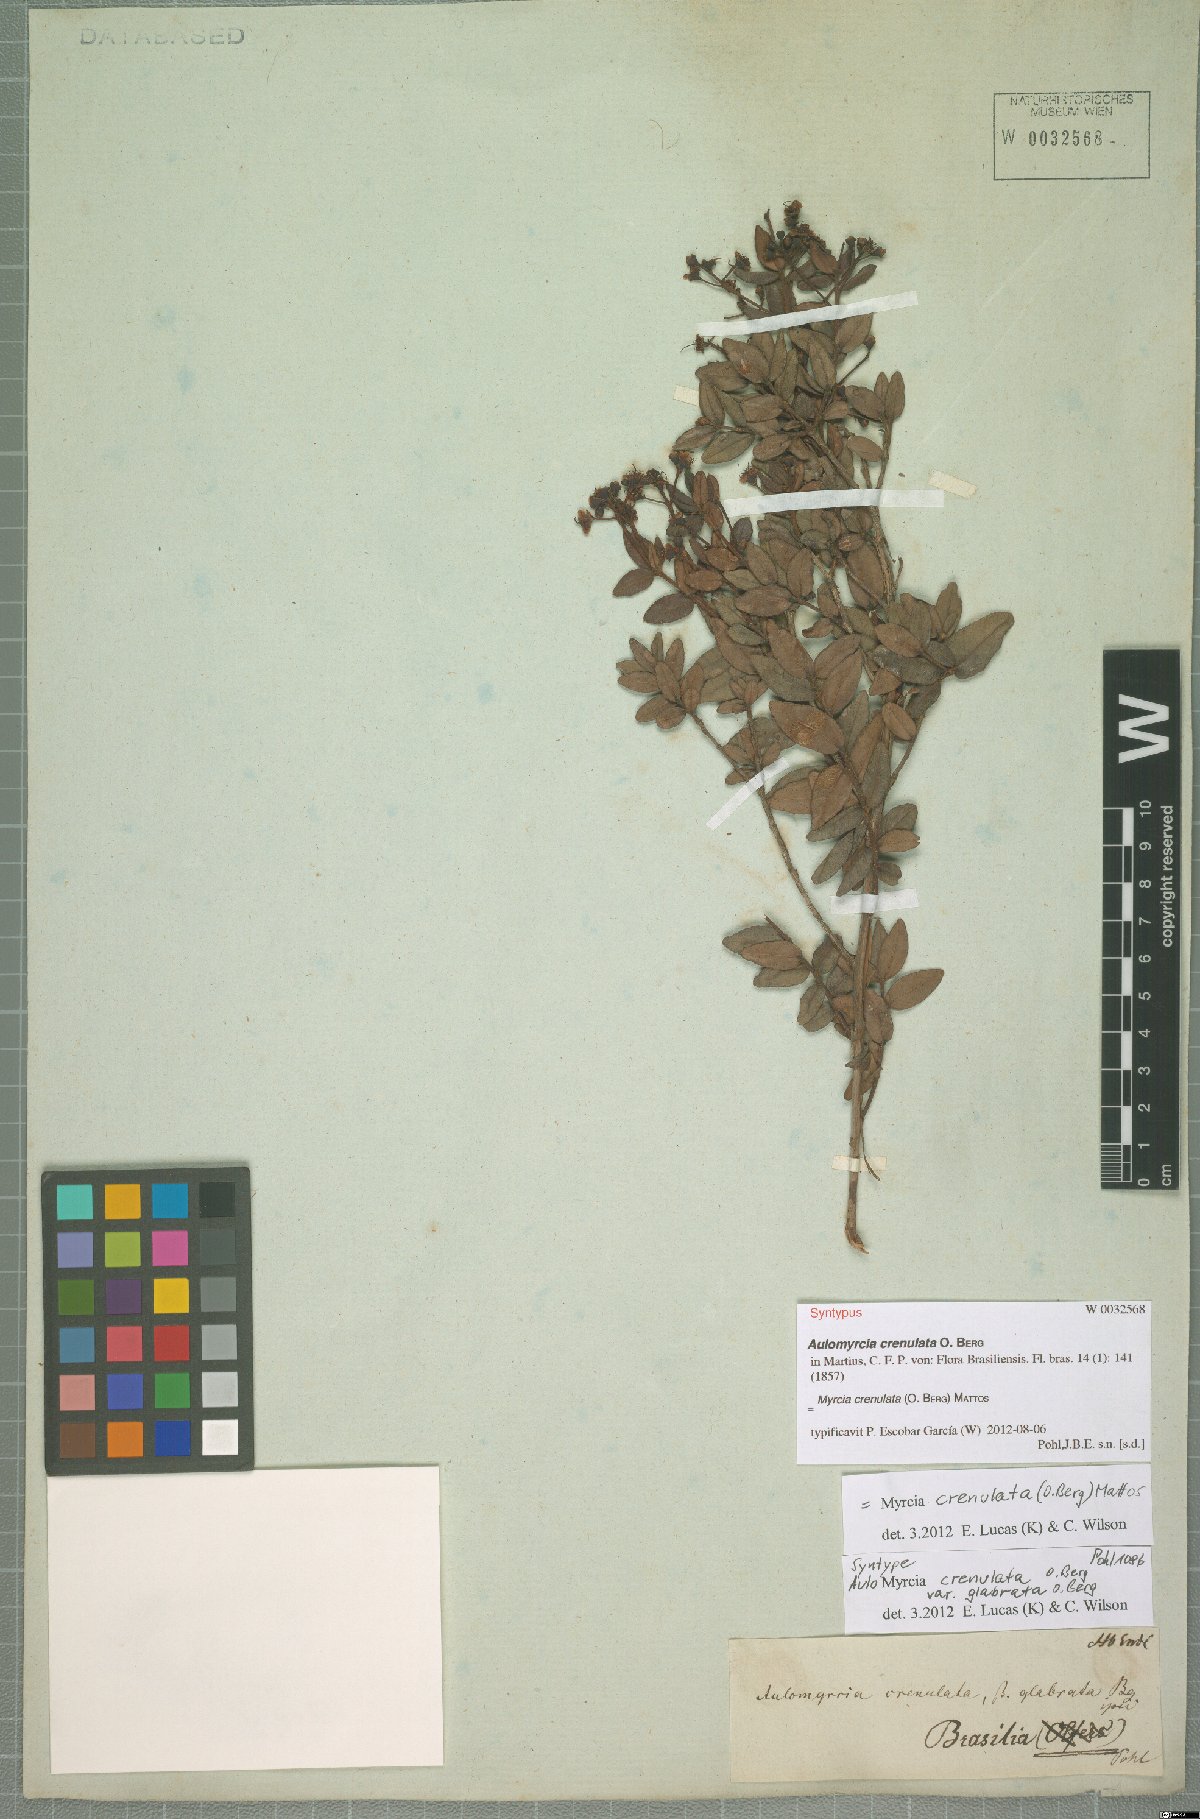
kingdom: Plantae
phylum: Tracheophyta
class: Magnoliopsida
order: Myrtales
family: Myrtaceae
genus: Myrcia
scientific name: Myrcia crenulata
